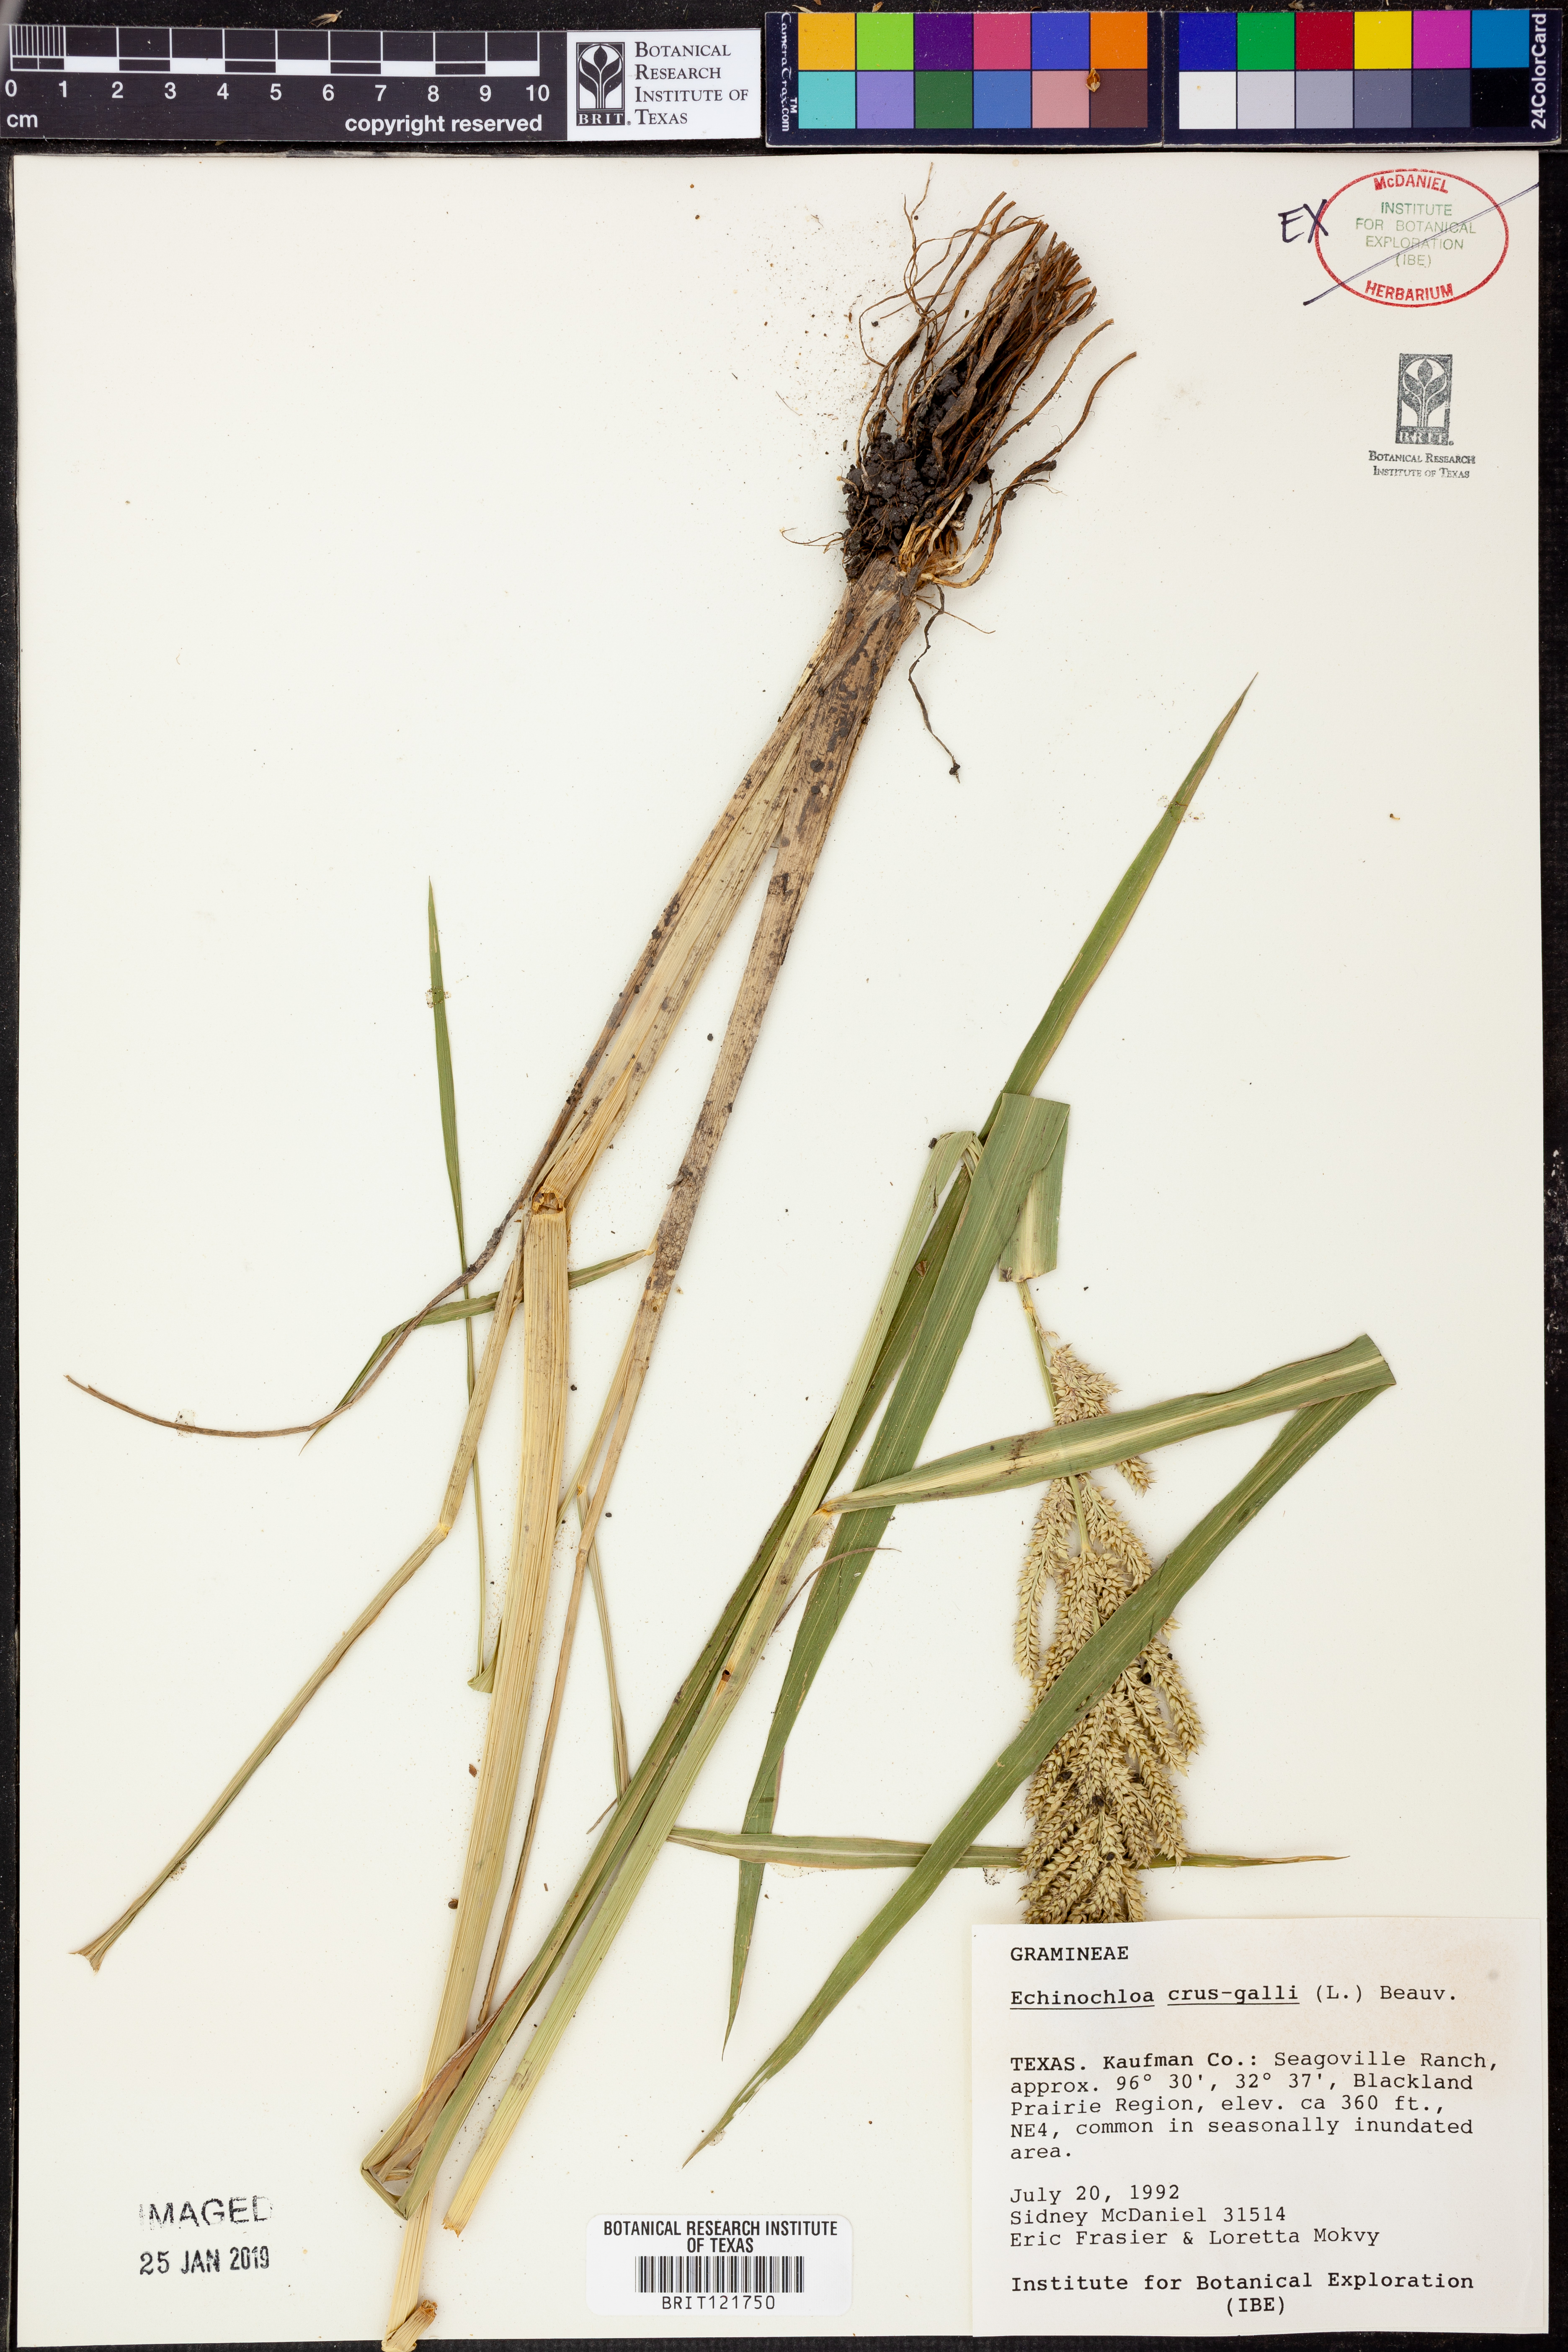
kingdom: Plantae
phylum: Tracheophyta
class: Liliopsida
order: Poales
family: Poaceae
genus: Echinochloa
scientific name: Echinochloa crus-galli
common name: Cockspur
